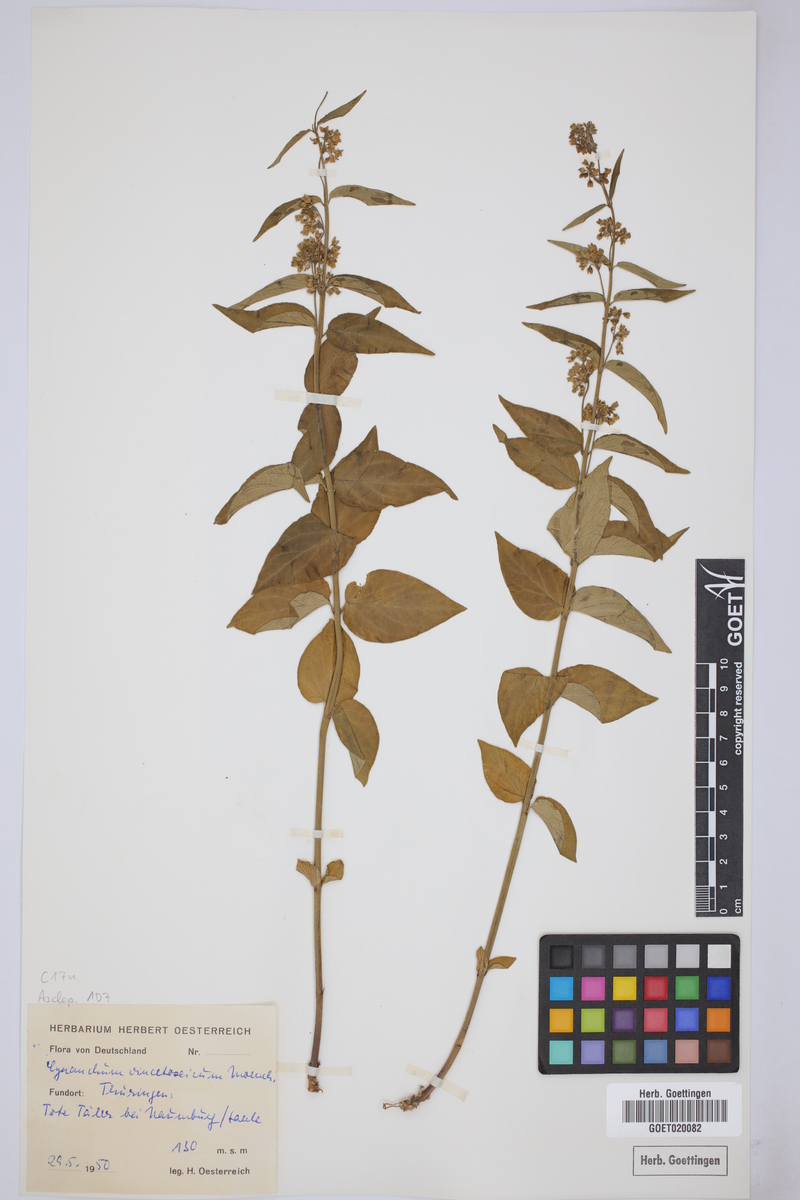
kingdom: Plantae
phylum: Tracheophyta
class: Magnoliopsida
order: Gentianales
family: Apocynaceae
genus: Vincetoxicum
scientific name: Vincetoxicum hirundinaria
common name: White swallowwort
